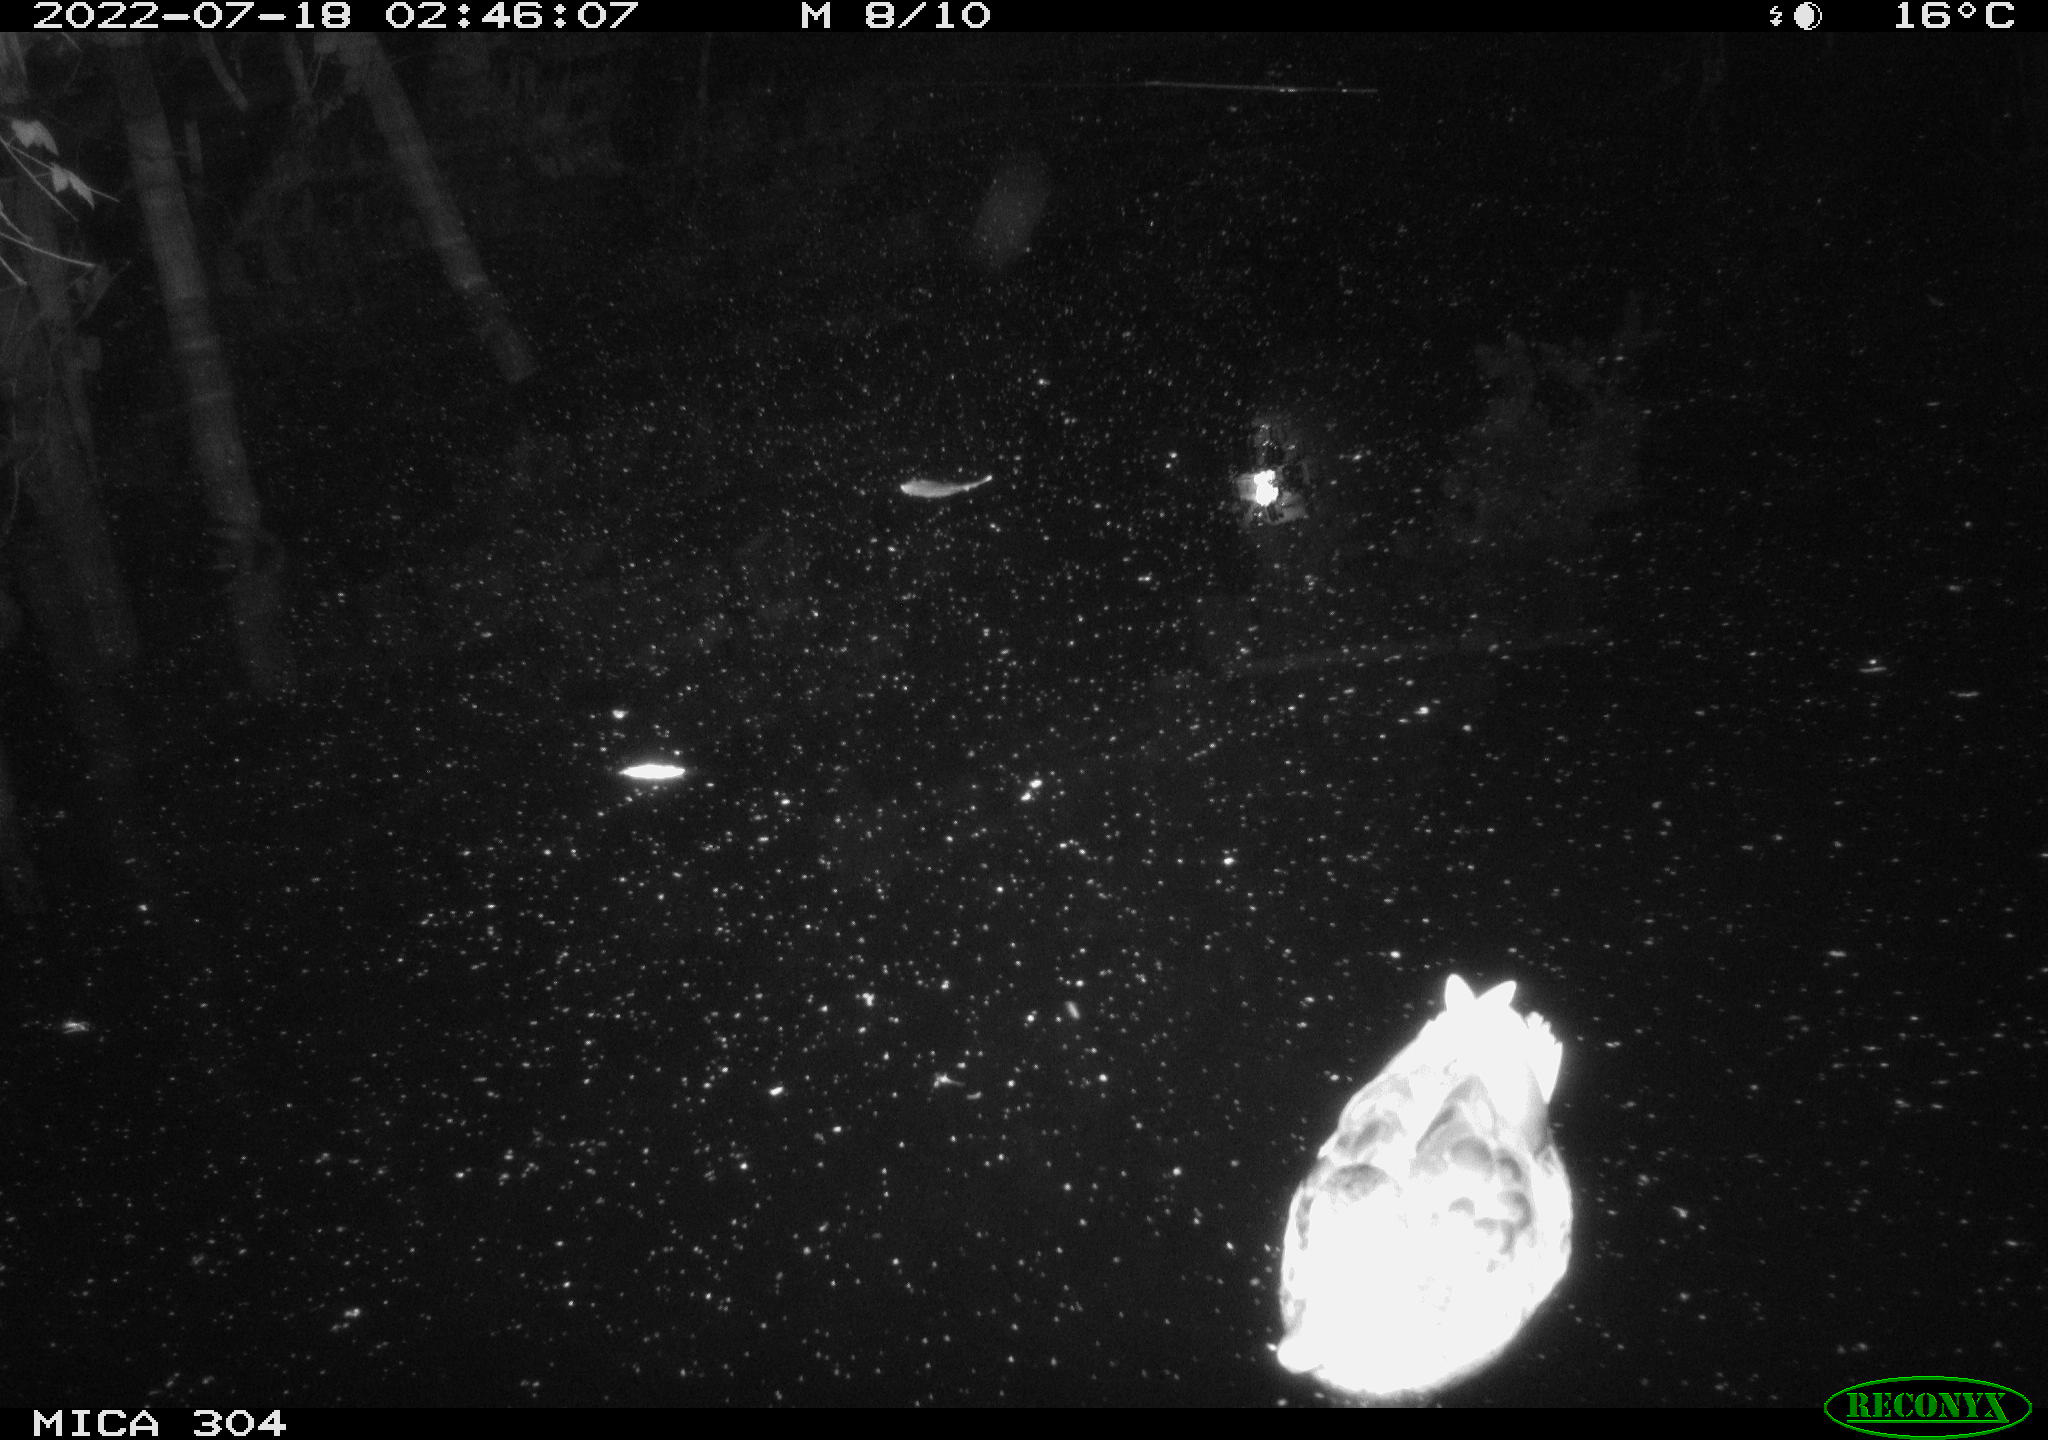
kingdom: Animalia
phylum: Chordata
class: Aves
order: Anseriformes
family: Anatidae
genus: Anas
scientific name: Anas platyrhynchos
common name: Mallard
